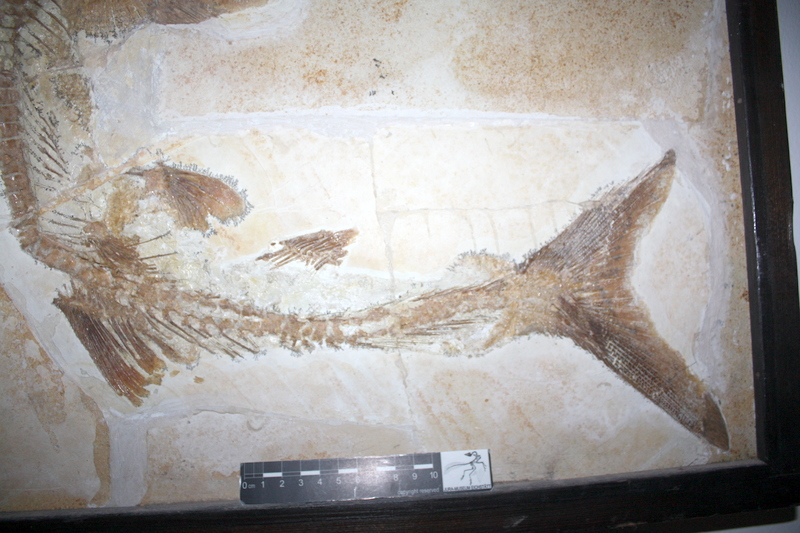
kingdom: Animalia
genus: Halecomorphi
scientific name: Halecomorphi
